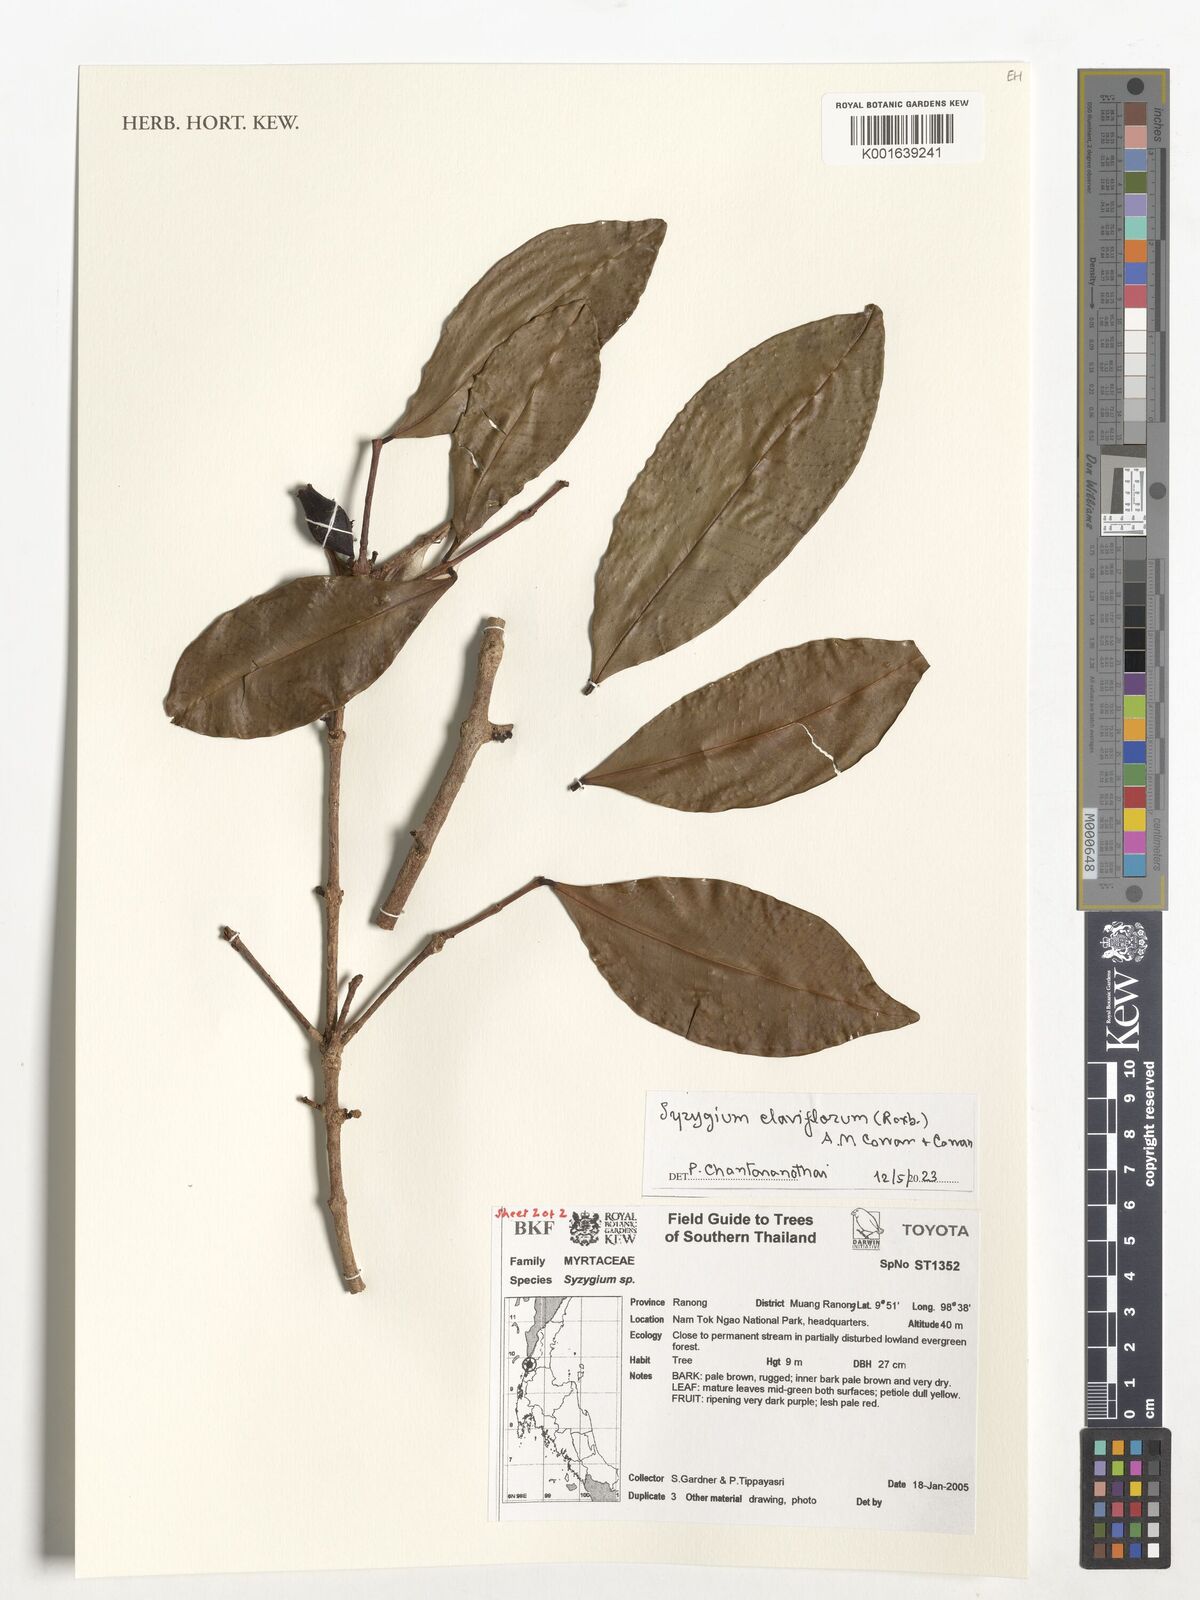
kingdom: Plantae
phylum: Tracheophyta
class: Magnoliopsida
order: Myrtales
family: Myrtaceae
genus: Syzygium
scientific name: Syzygium claviflorum
